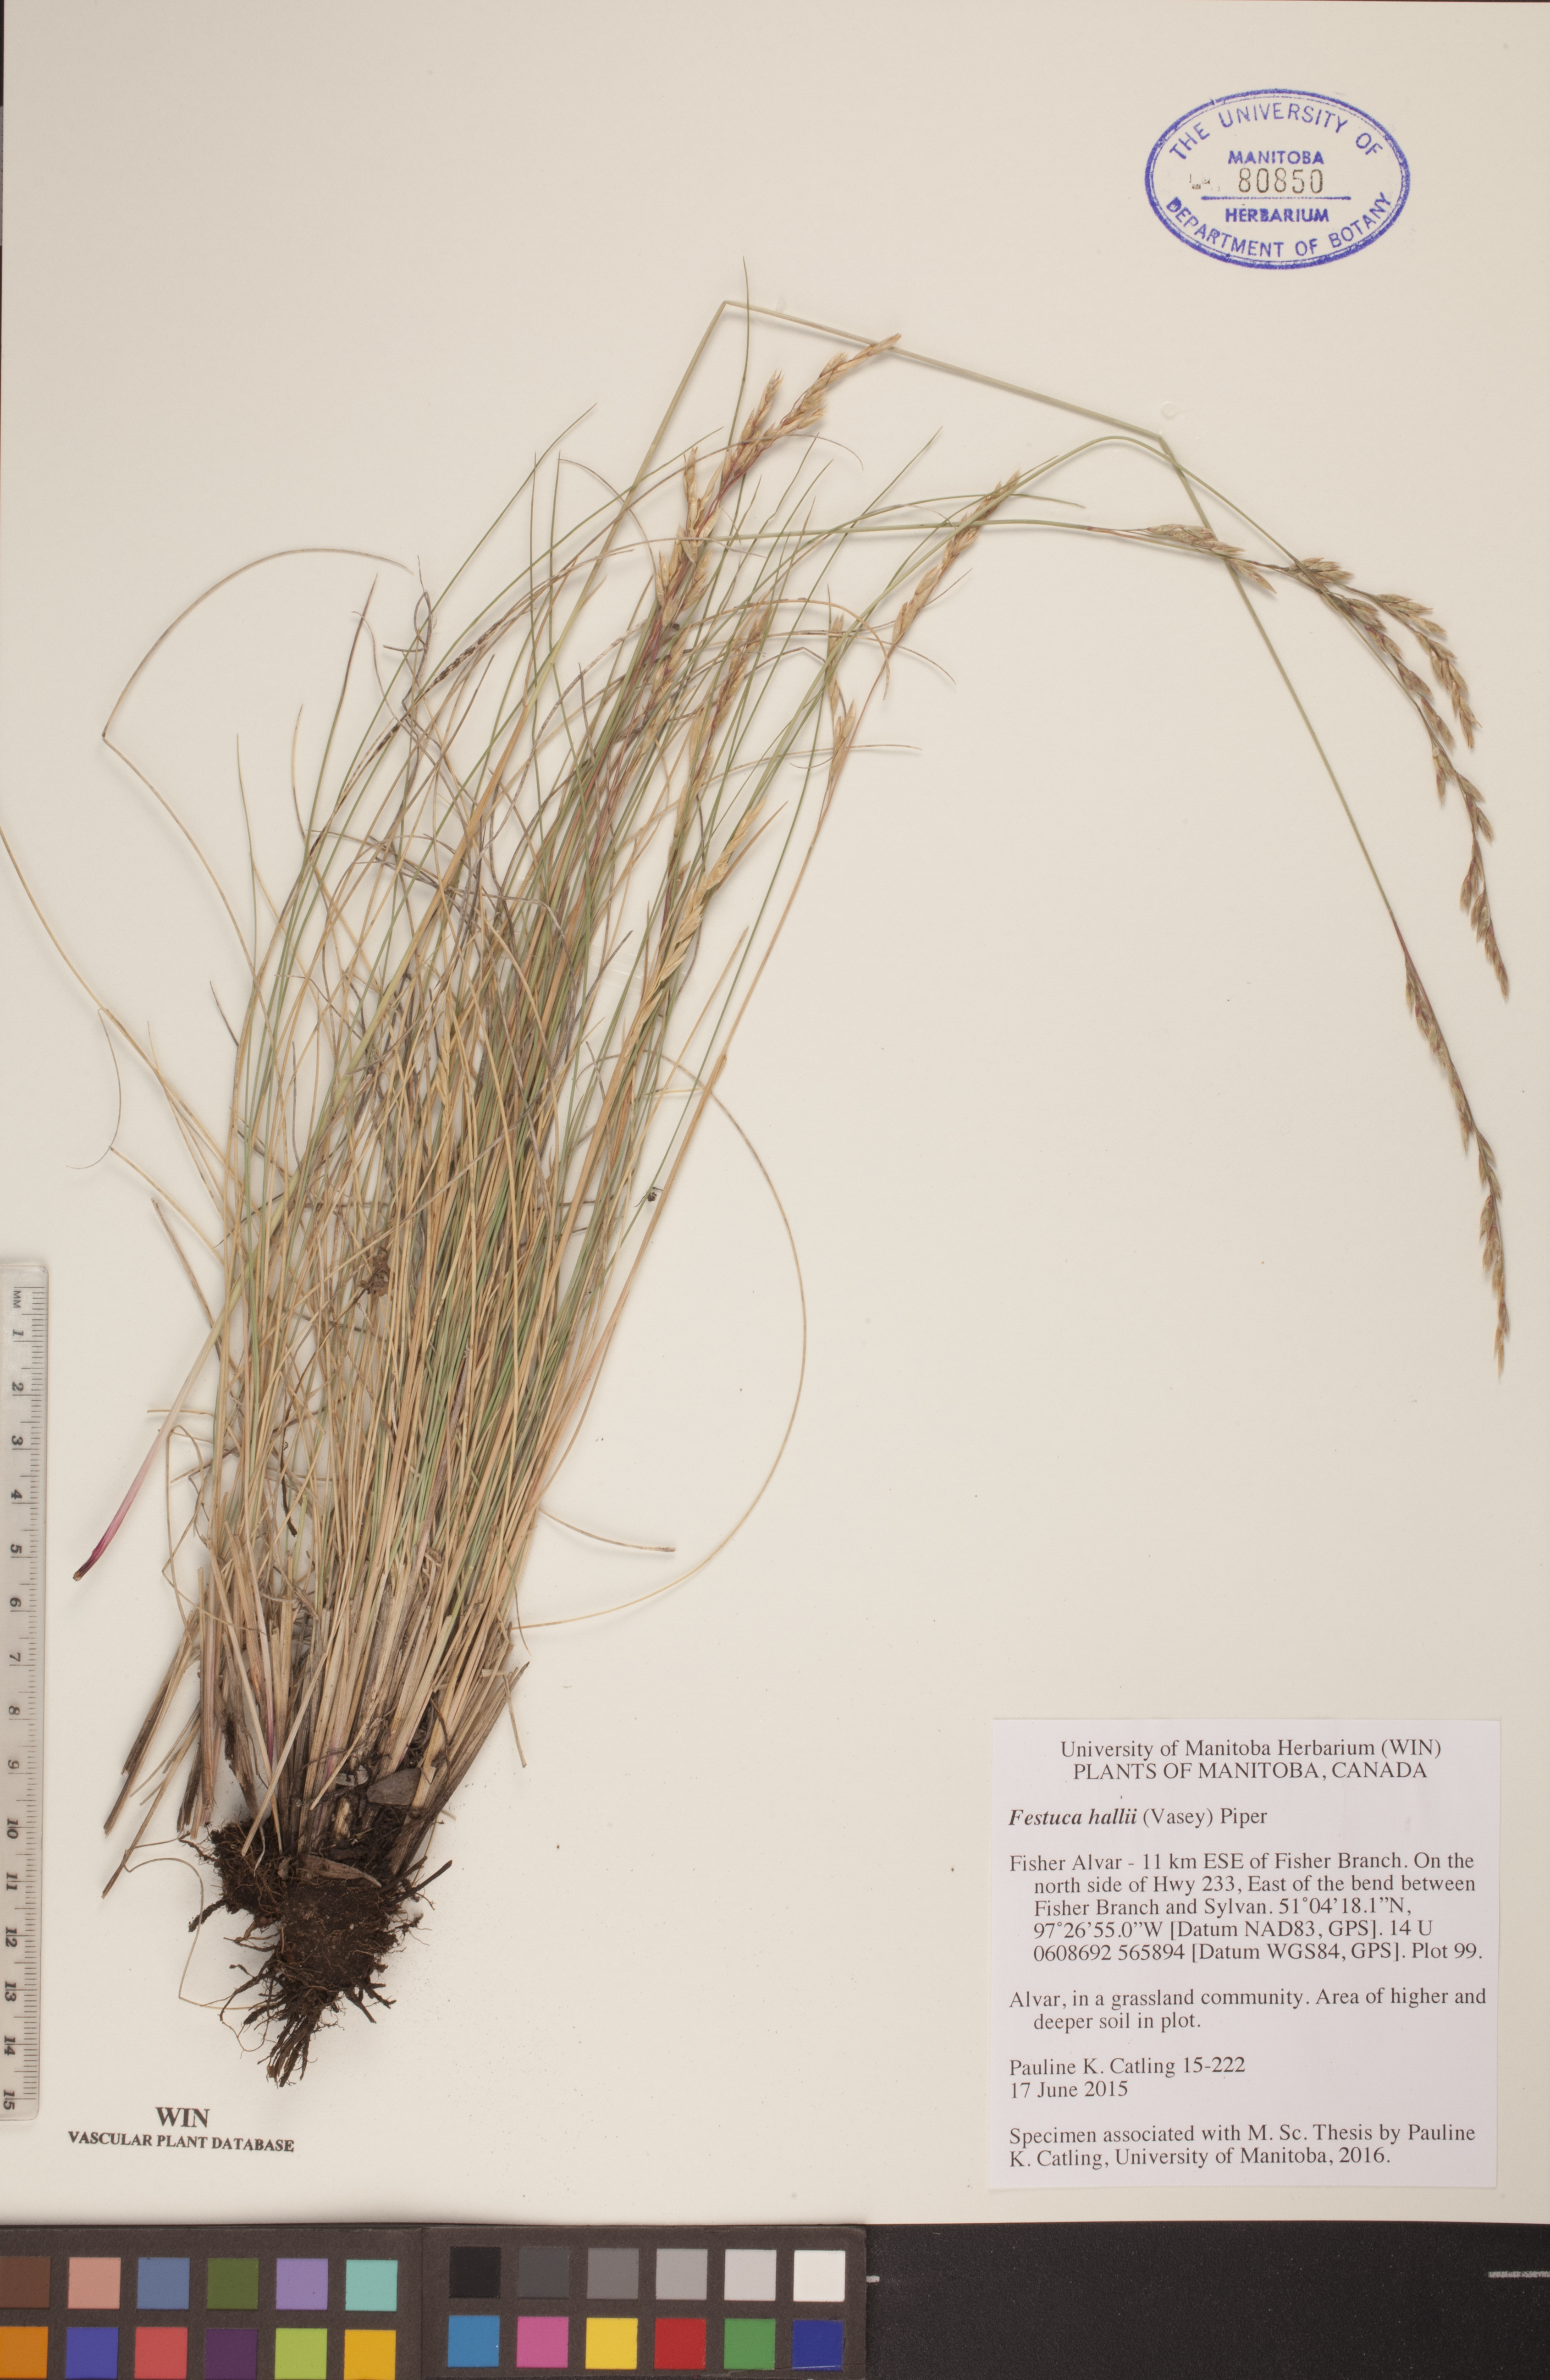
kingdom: Plantae
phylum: Tracheophyta
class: Liliopsida
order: Poales
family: Poaceae
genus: Festuca
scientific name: Festuca hallii
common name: Hall's fescue
